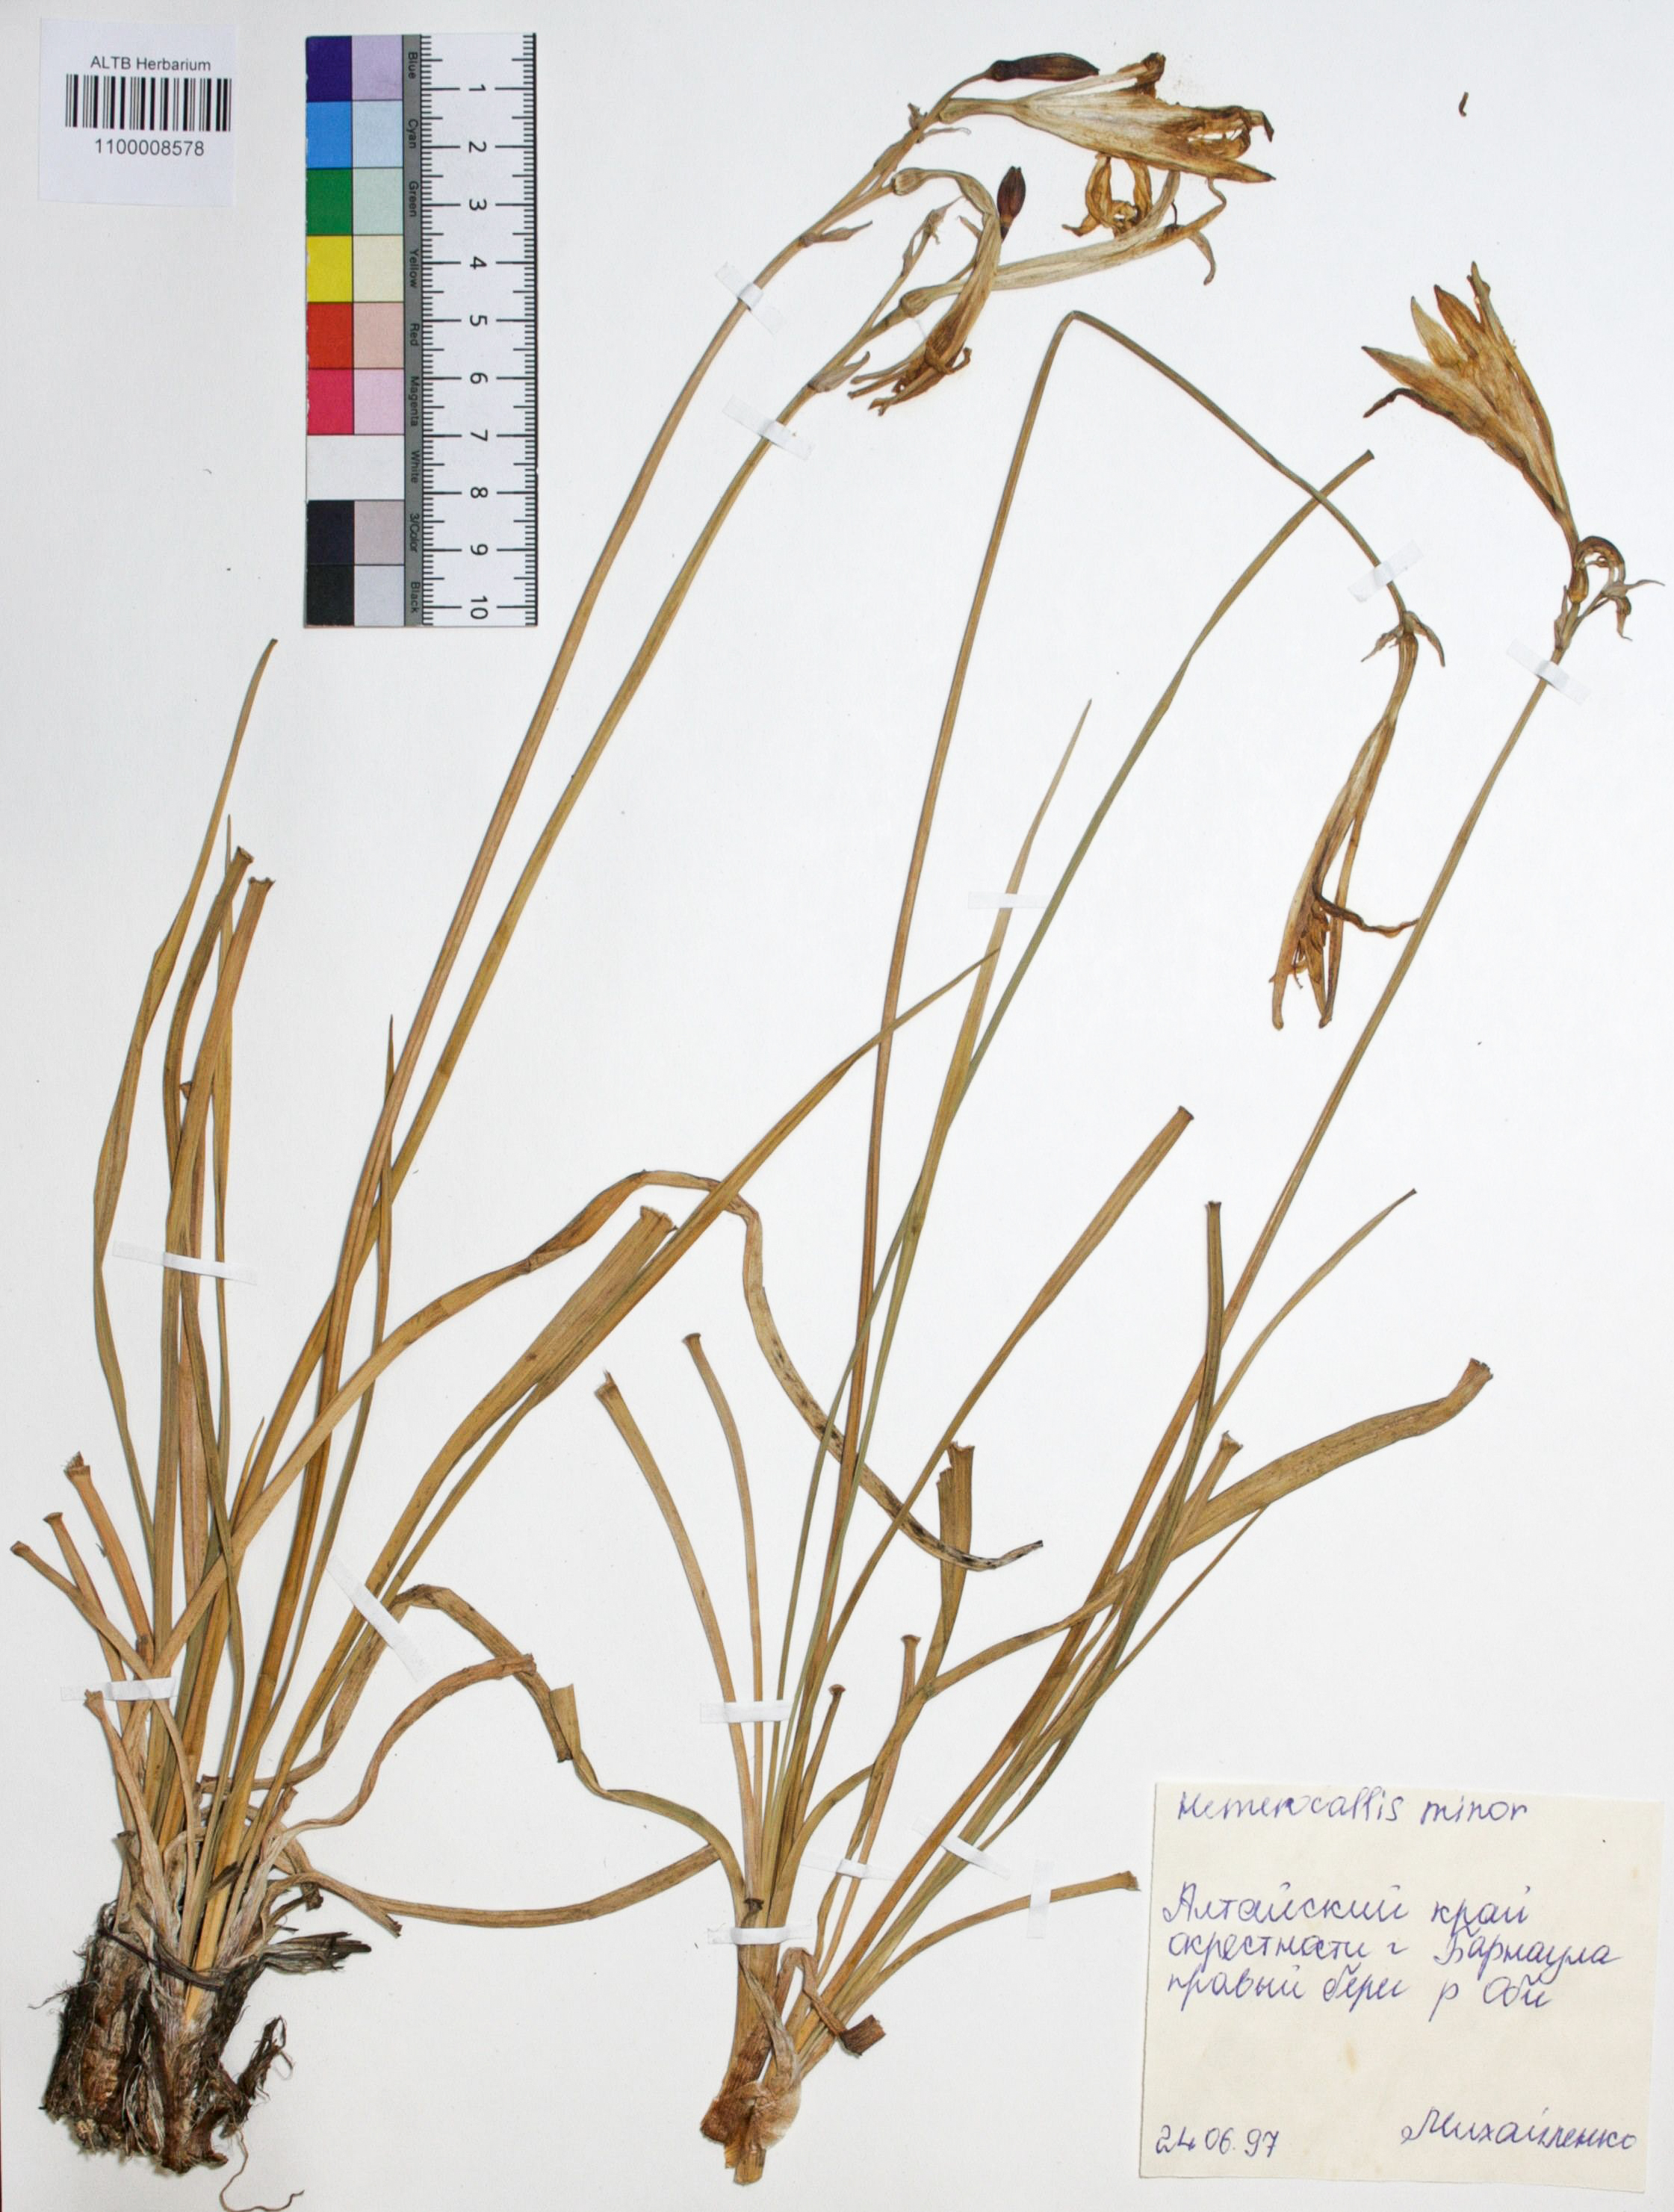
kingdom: Plantae
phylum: Tracheophyta
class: Liliopsida
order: Asparagales
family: Asphodelaceae
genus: Hemerocallis
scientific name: Hemerocallis lilioasphodelus
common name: Yellow day-lily
